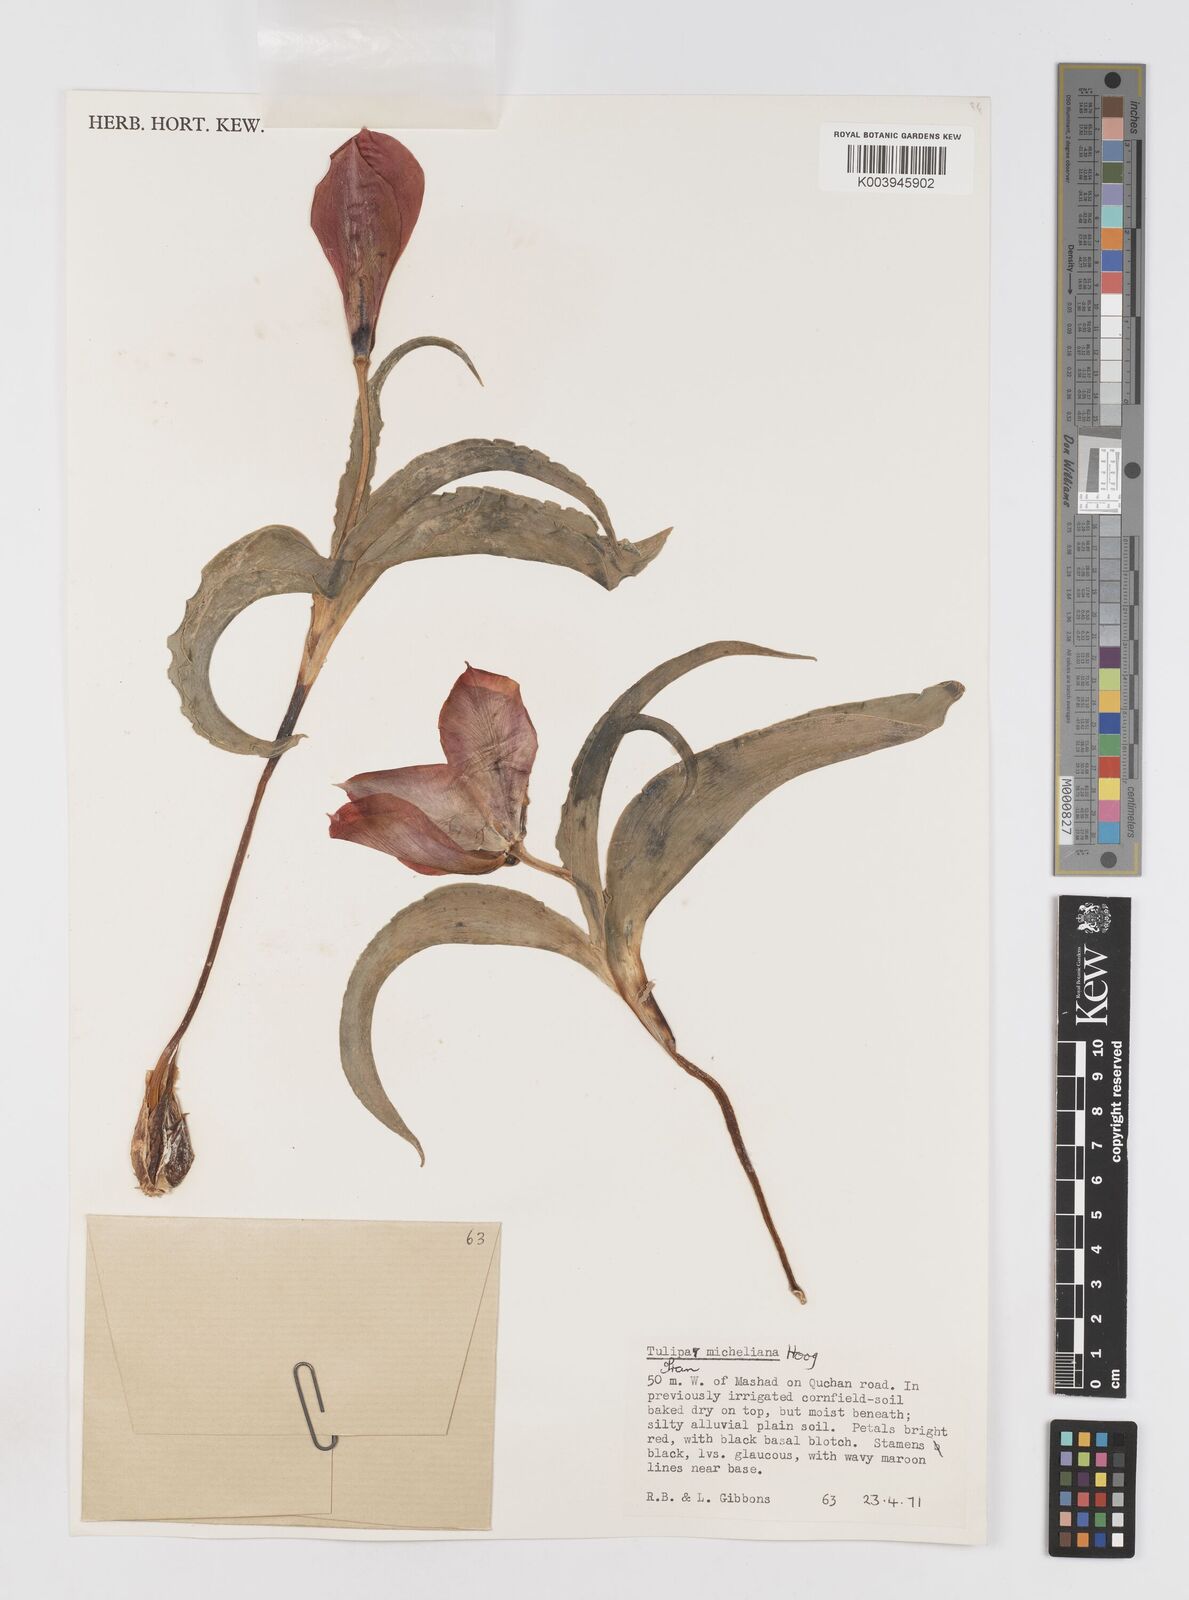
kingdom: Plantae
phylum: Tracheophyta
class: Liliopsida
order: Liliales
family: Liliaceae
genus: Tulipa
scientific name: Tulipa undulatifolia
